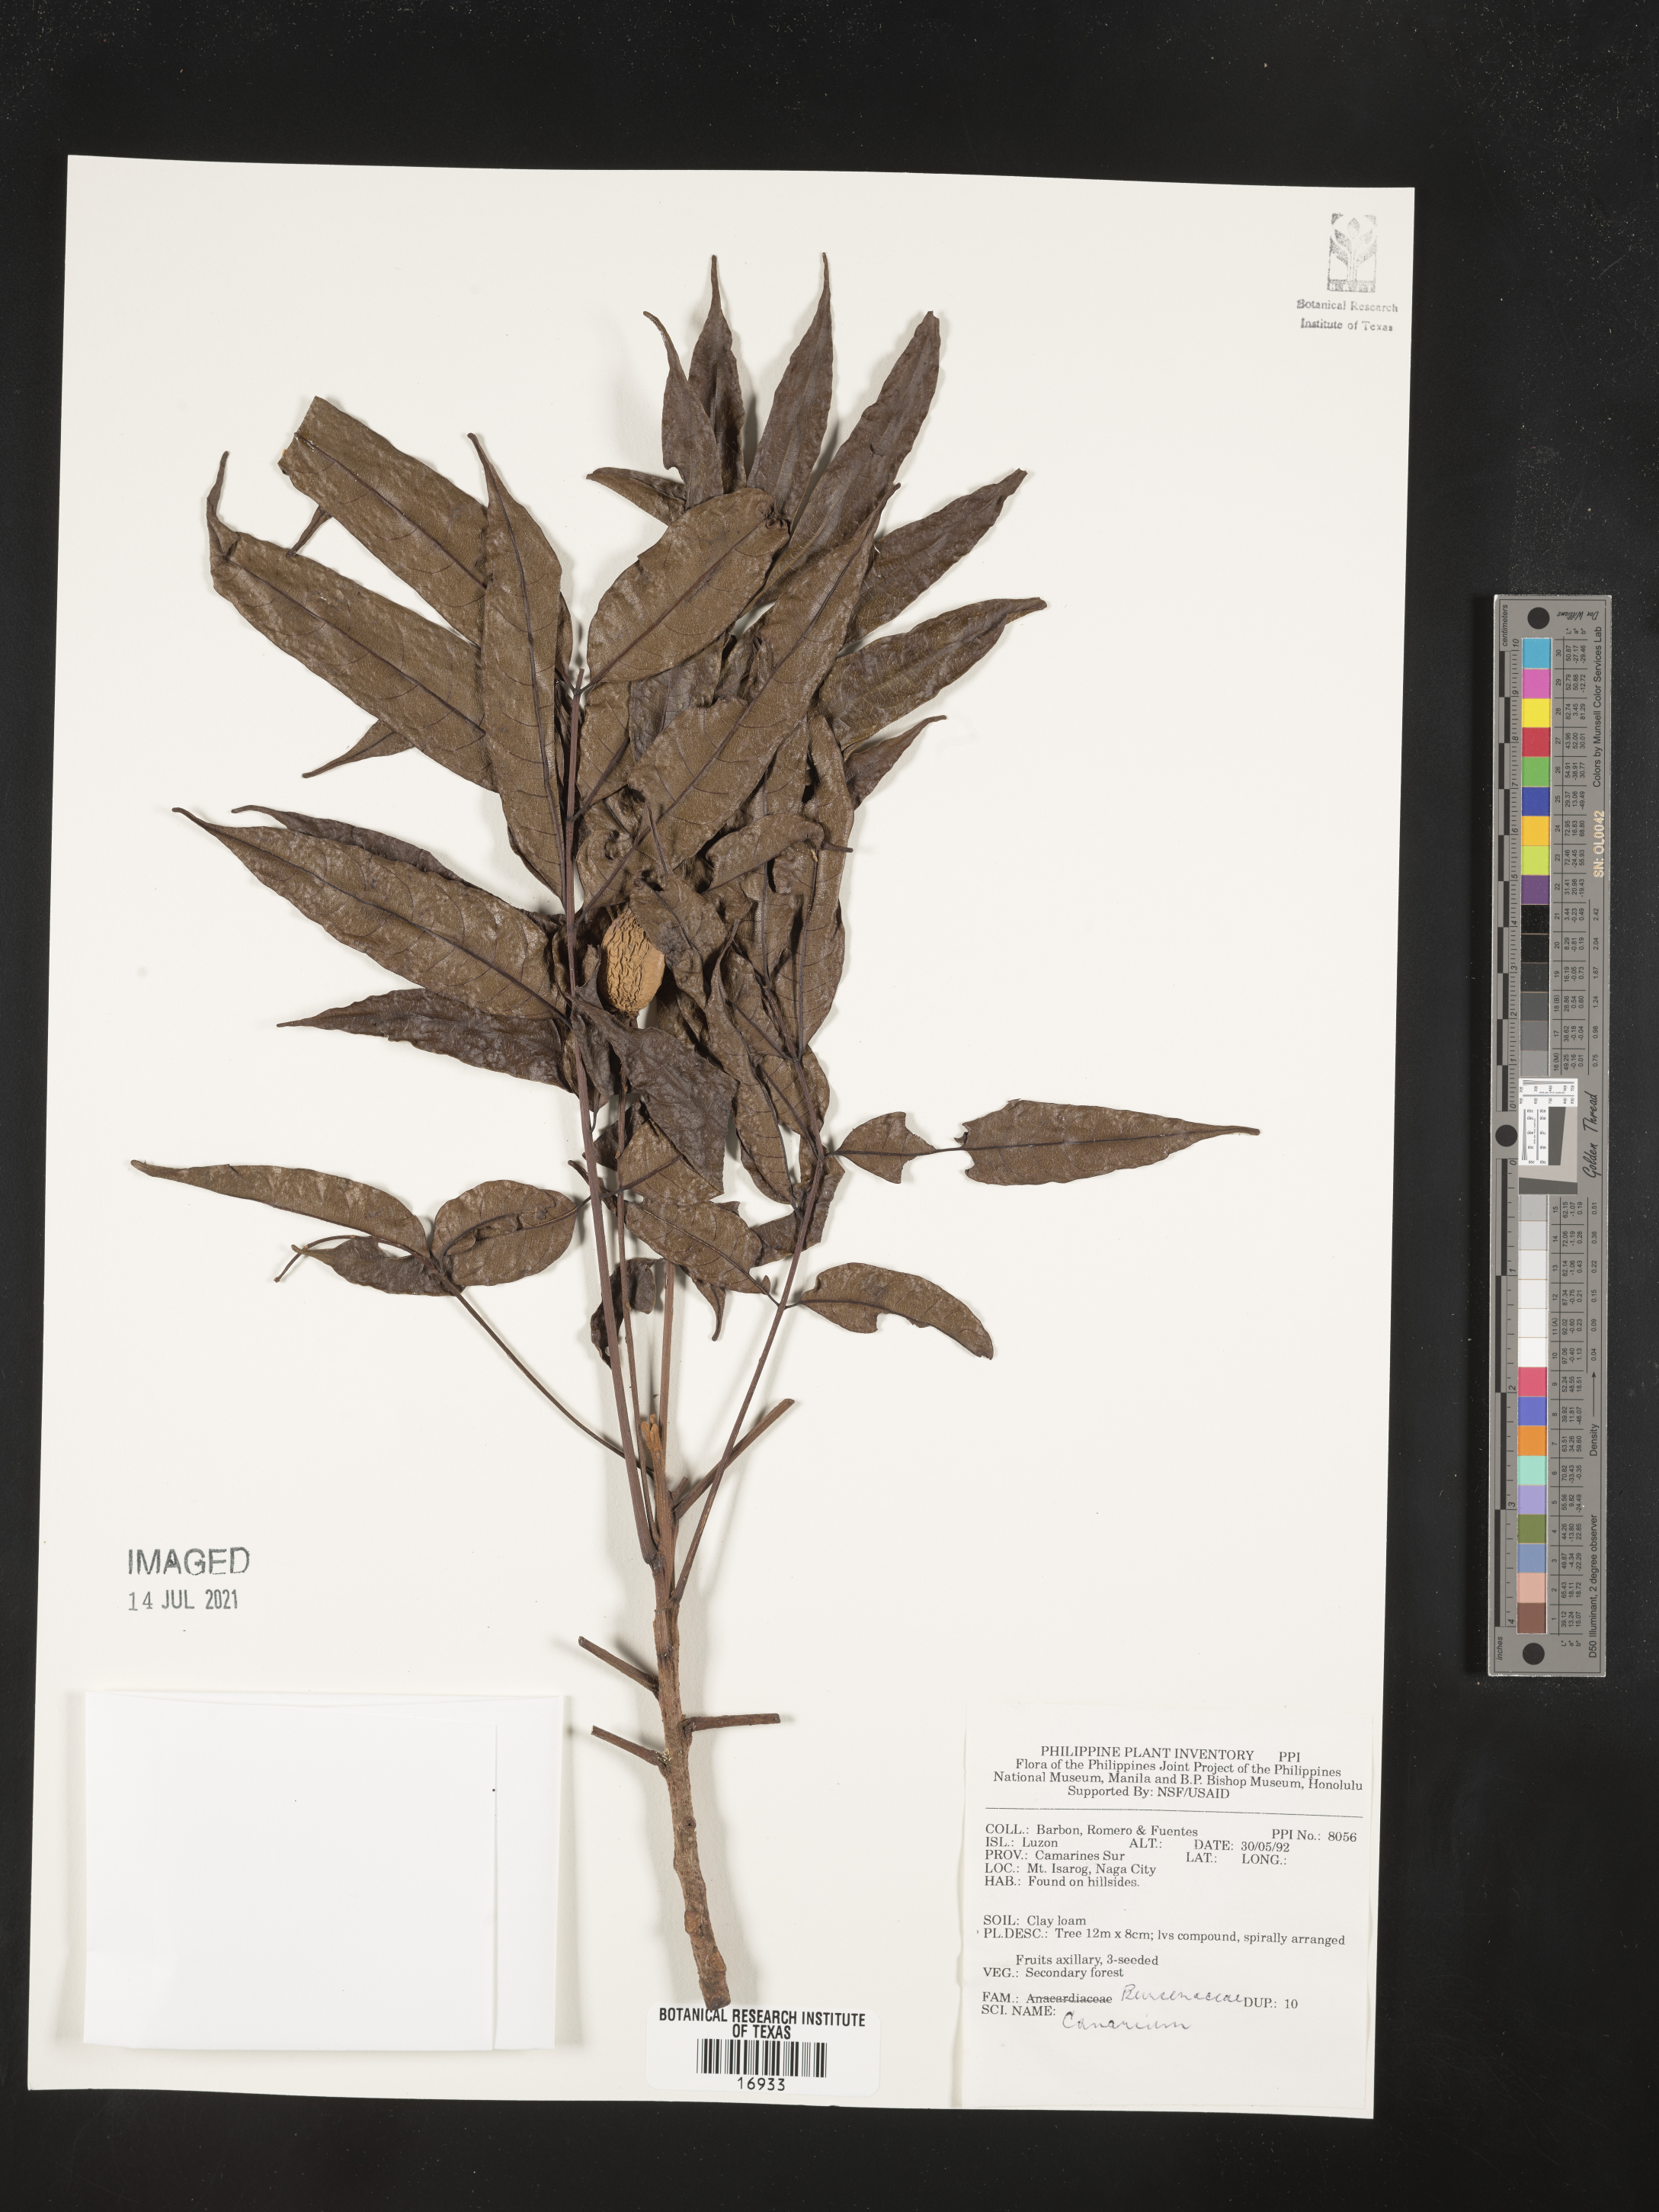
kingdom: Plantae
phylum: Tracheophyta
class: Magnoliopsida
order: Sapindales
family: Burseraceae
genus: Canarium
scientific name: Canarium
